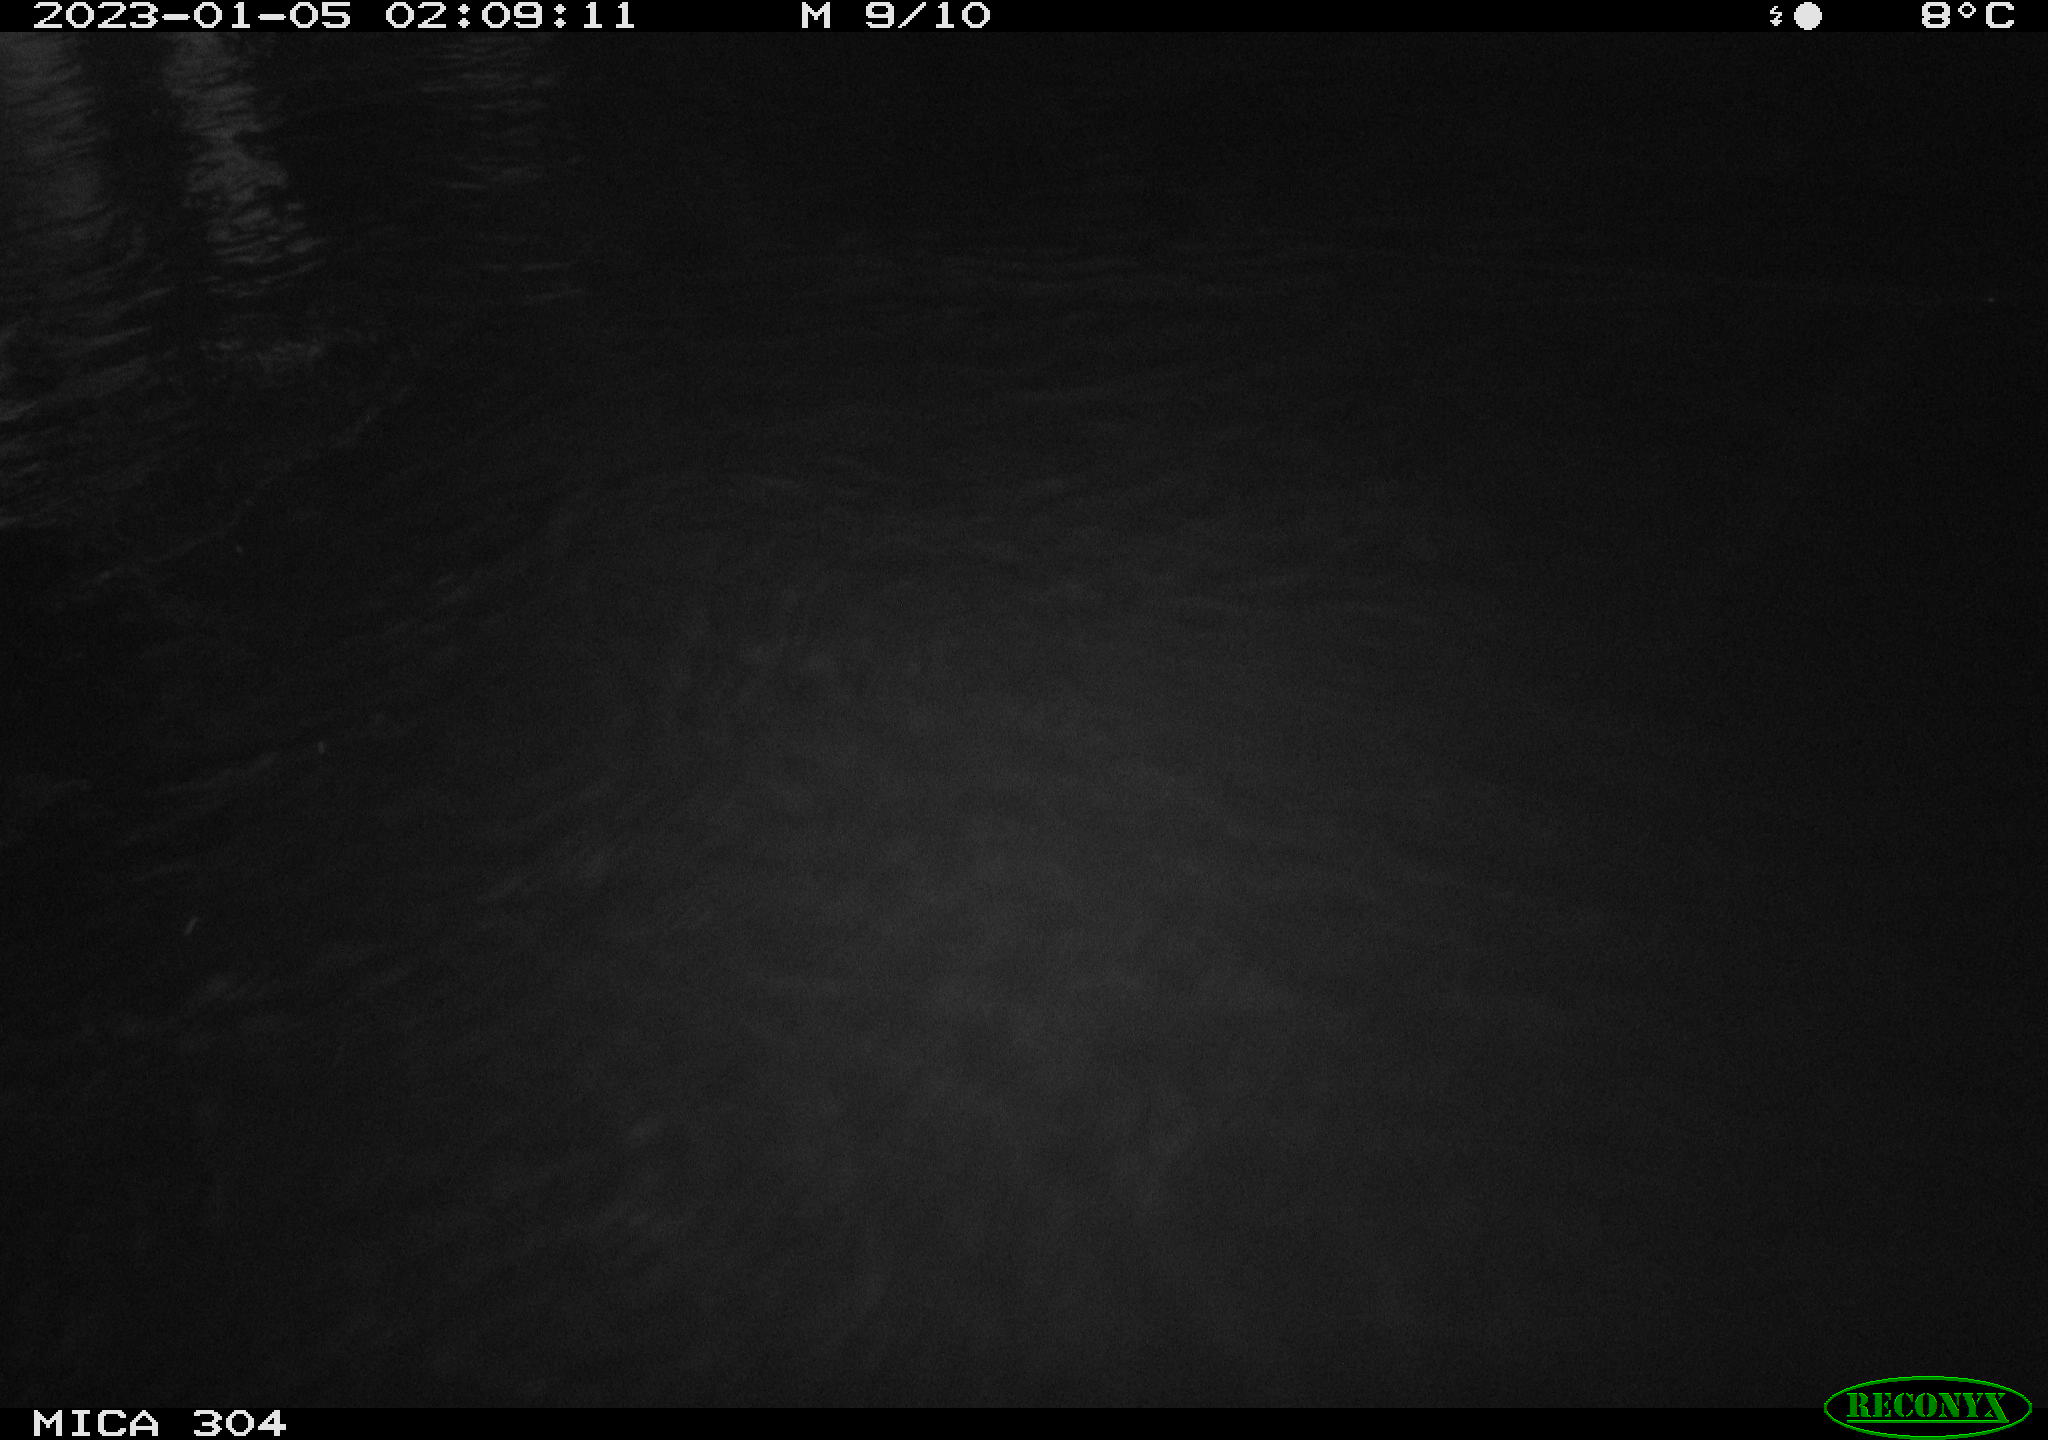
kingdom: Animalia
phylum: Chordata
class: Aves
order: Gruiformes
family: Rallidae
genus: Fulica
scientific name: Fulica atra
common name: Eurasian coot
